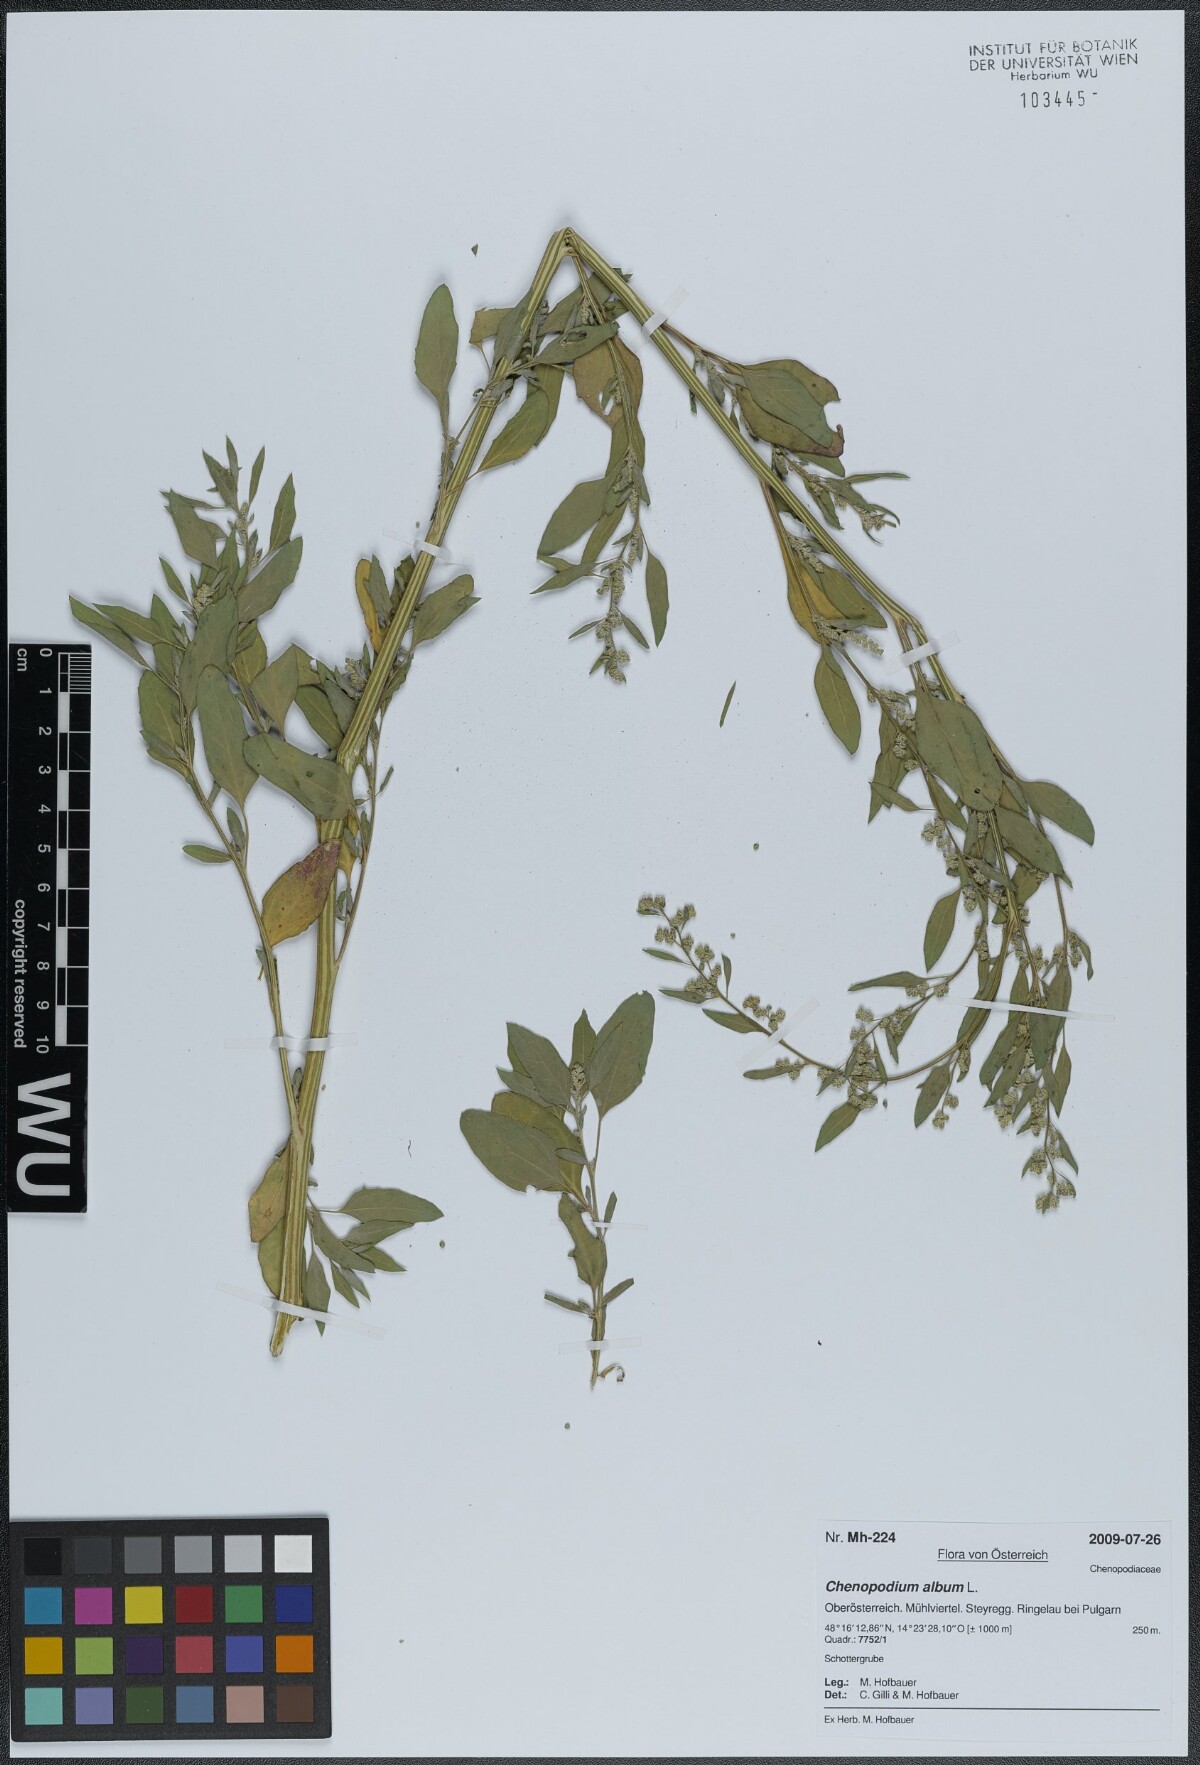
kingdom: Plantae
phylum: Tracheophyta
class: Magnoliopsida
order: Caryophyllales
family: Amaranthaceae
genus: Chenopodium
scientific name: Chenopodium album
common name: Fat-hen
